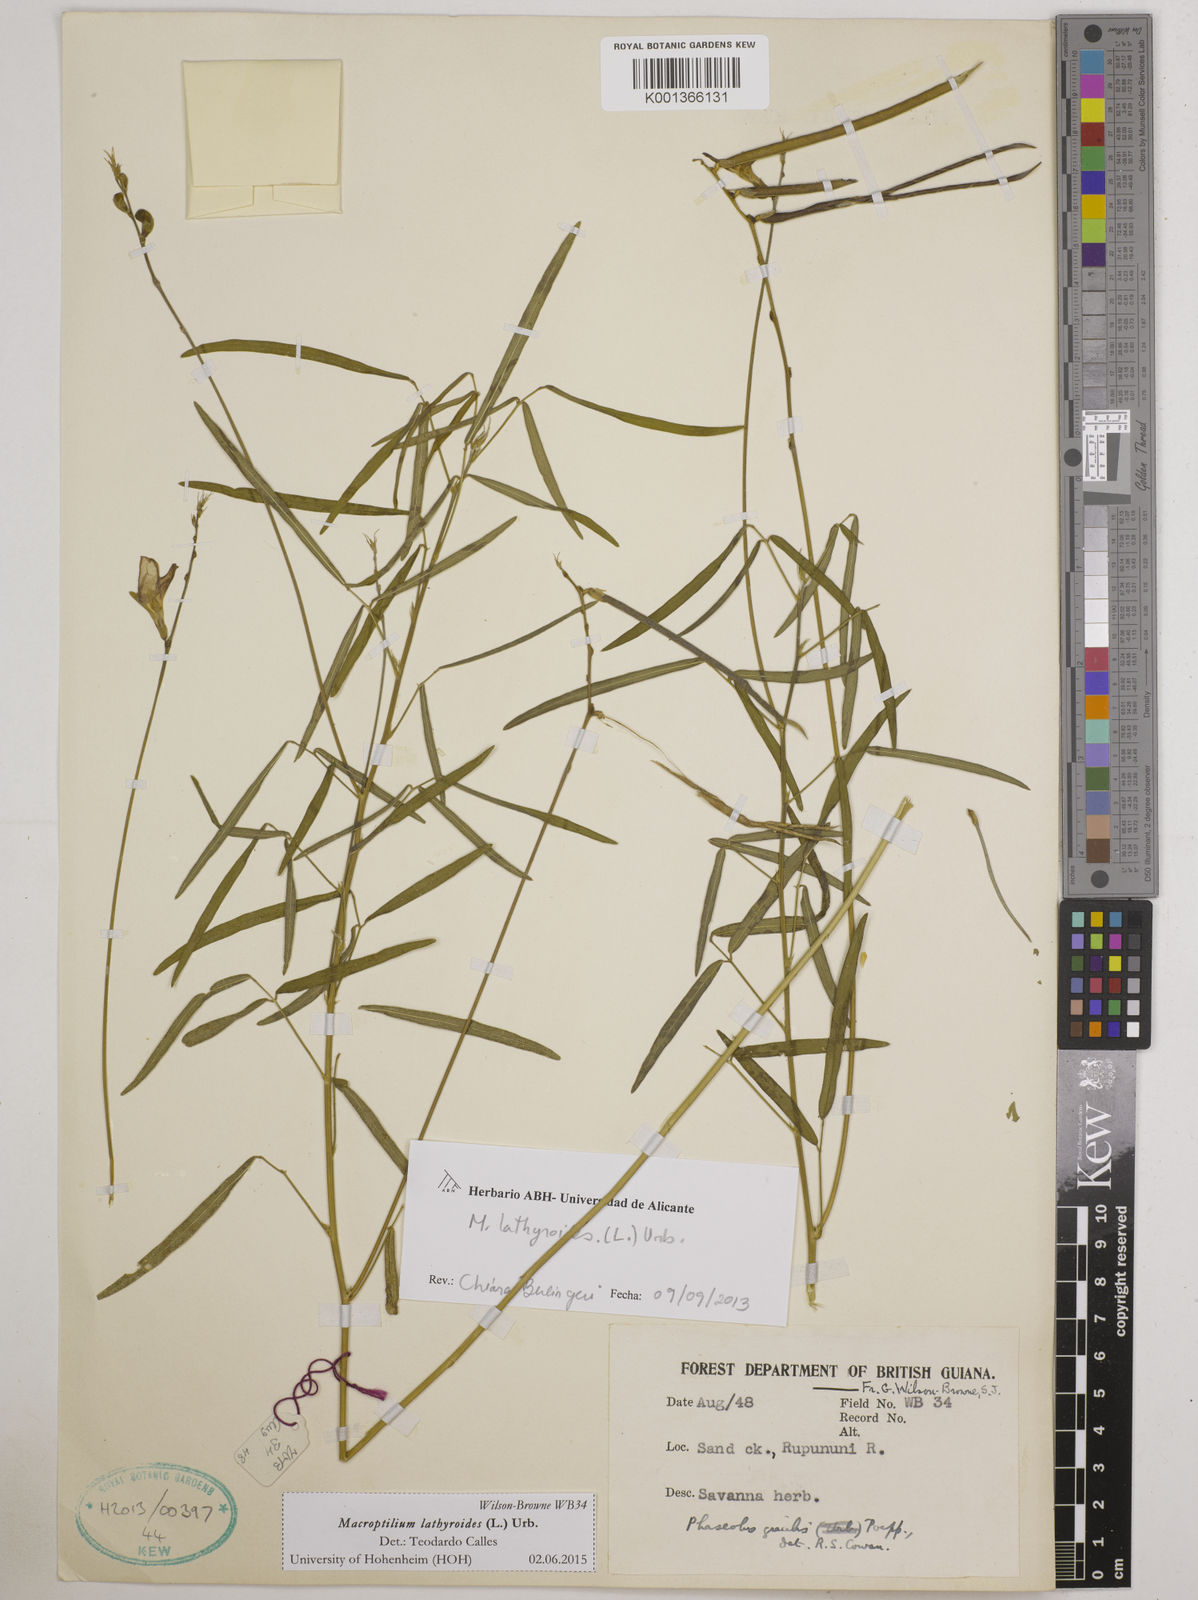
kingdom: Plantae
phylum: Tracheophyta
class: Magnoliopsida
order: Fabales
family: Fabaceae
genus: Macroptilium
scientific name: Macroptilium lathyroides
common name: Wild bushbean
